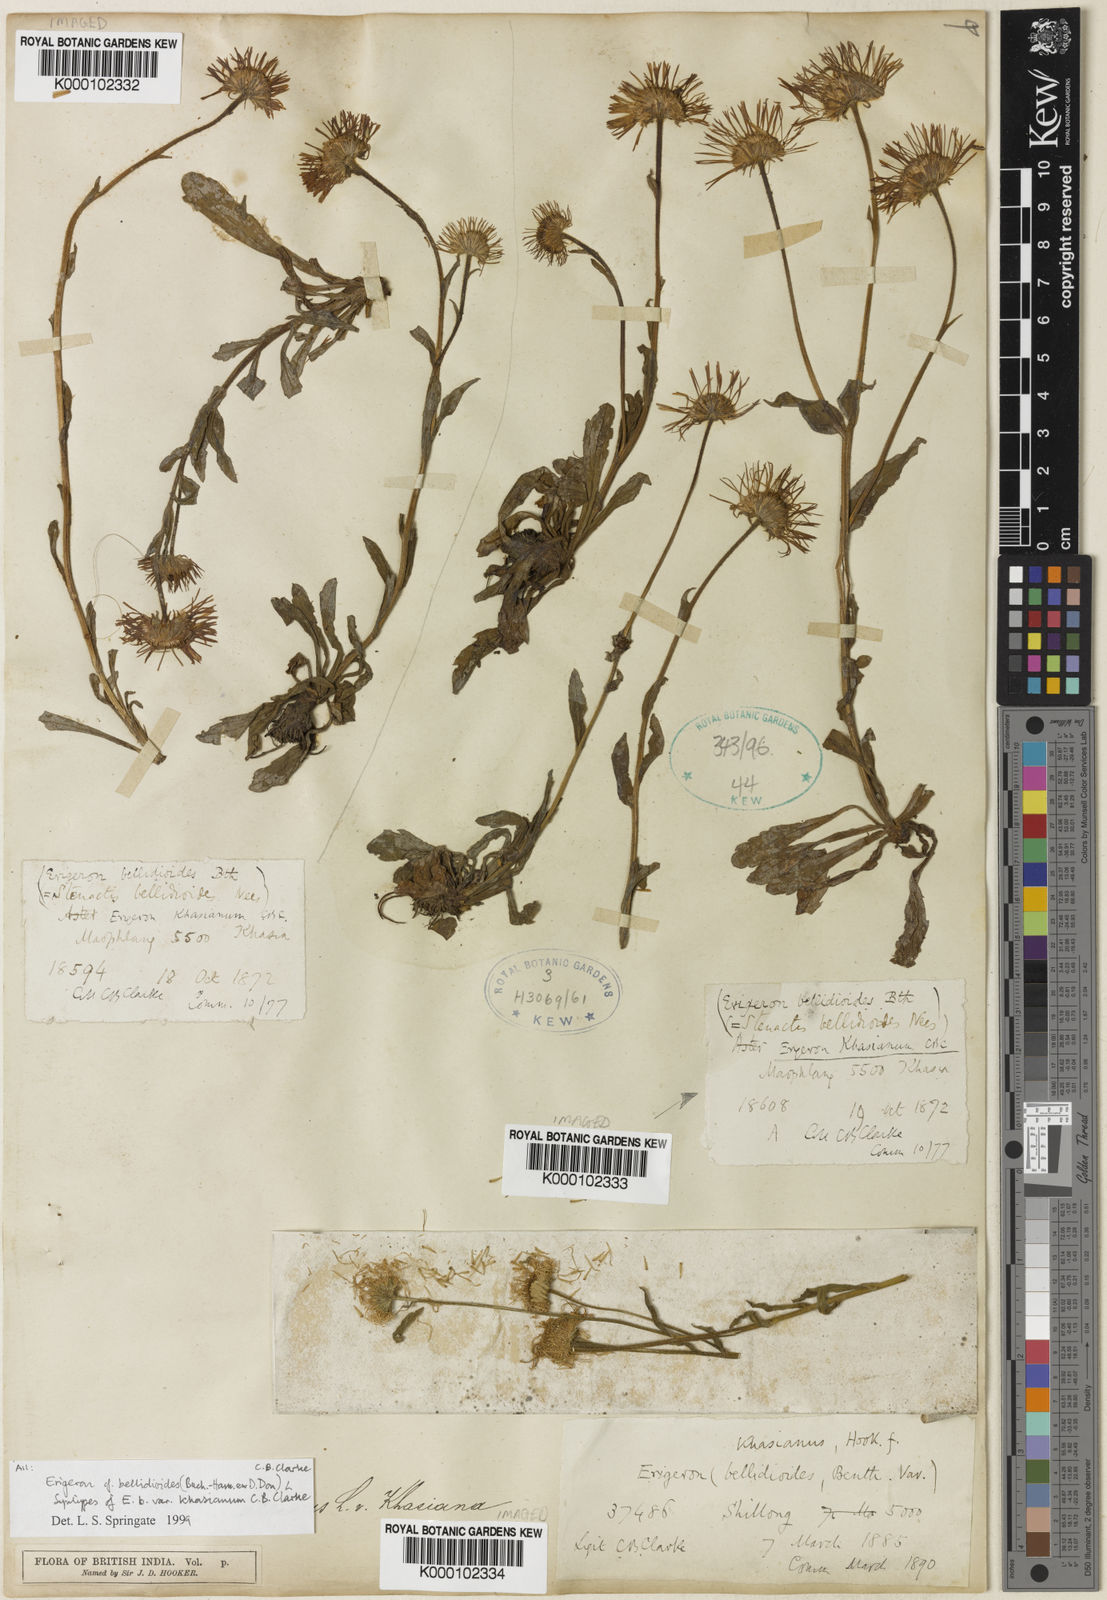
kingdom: Plantae
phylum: Tracheophyta
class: Magnoliopsida
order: Asterales
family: Asteraceae
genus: Erigeron
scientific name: Erigeron alpinus
